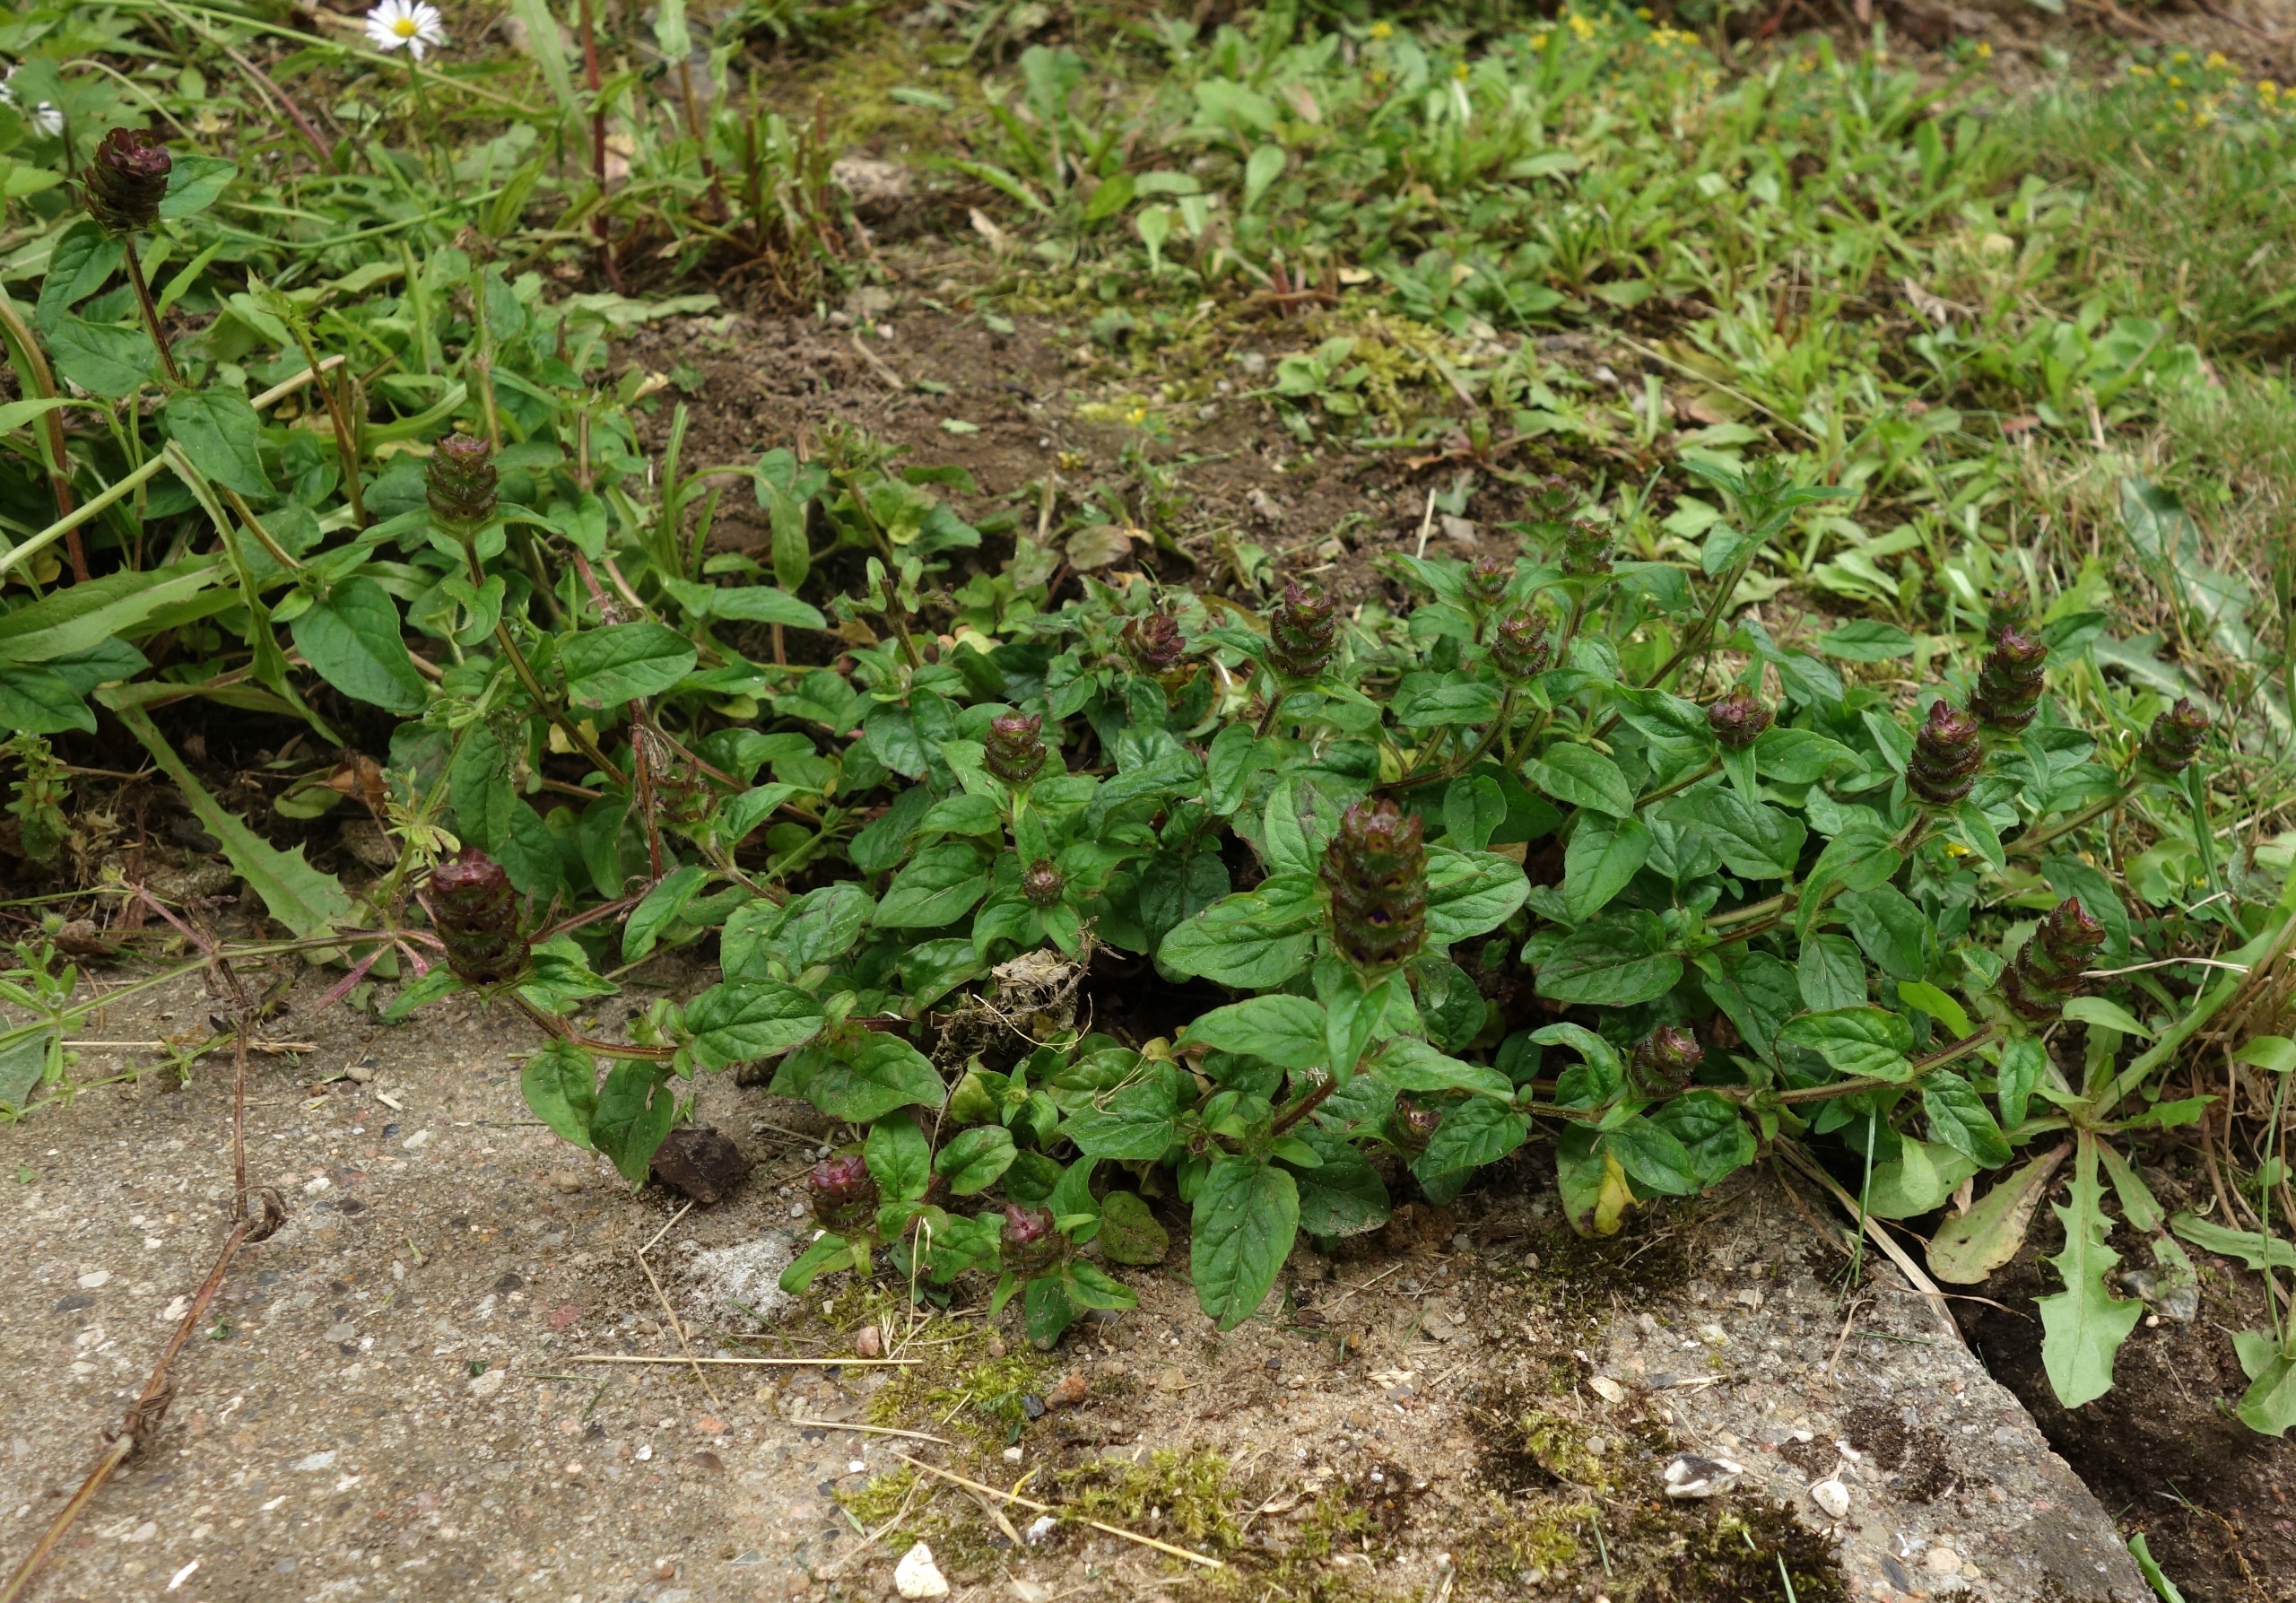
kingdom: Plantae
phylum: Tracheophyta
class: Magnoliopsida
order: Lamiales
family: Lamiaceae
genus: Prunella
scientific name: Prunella vulgaris
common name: Almindelig brunelle
